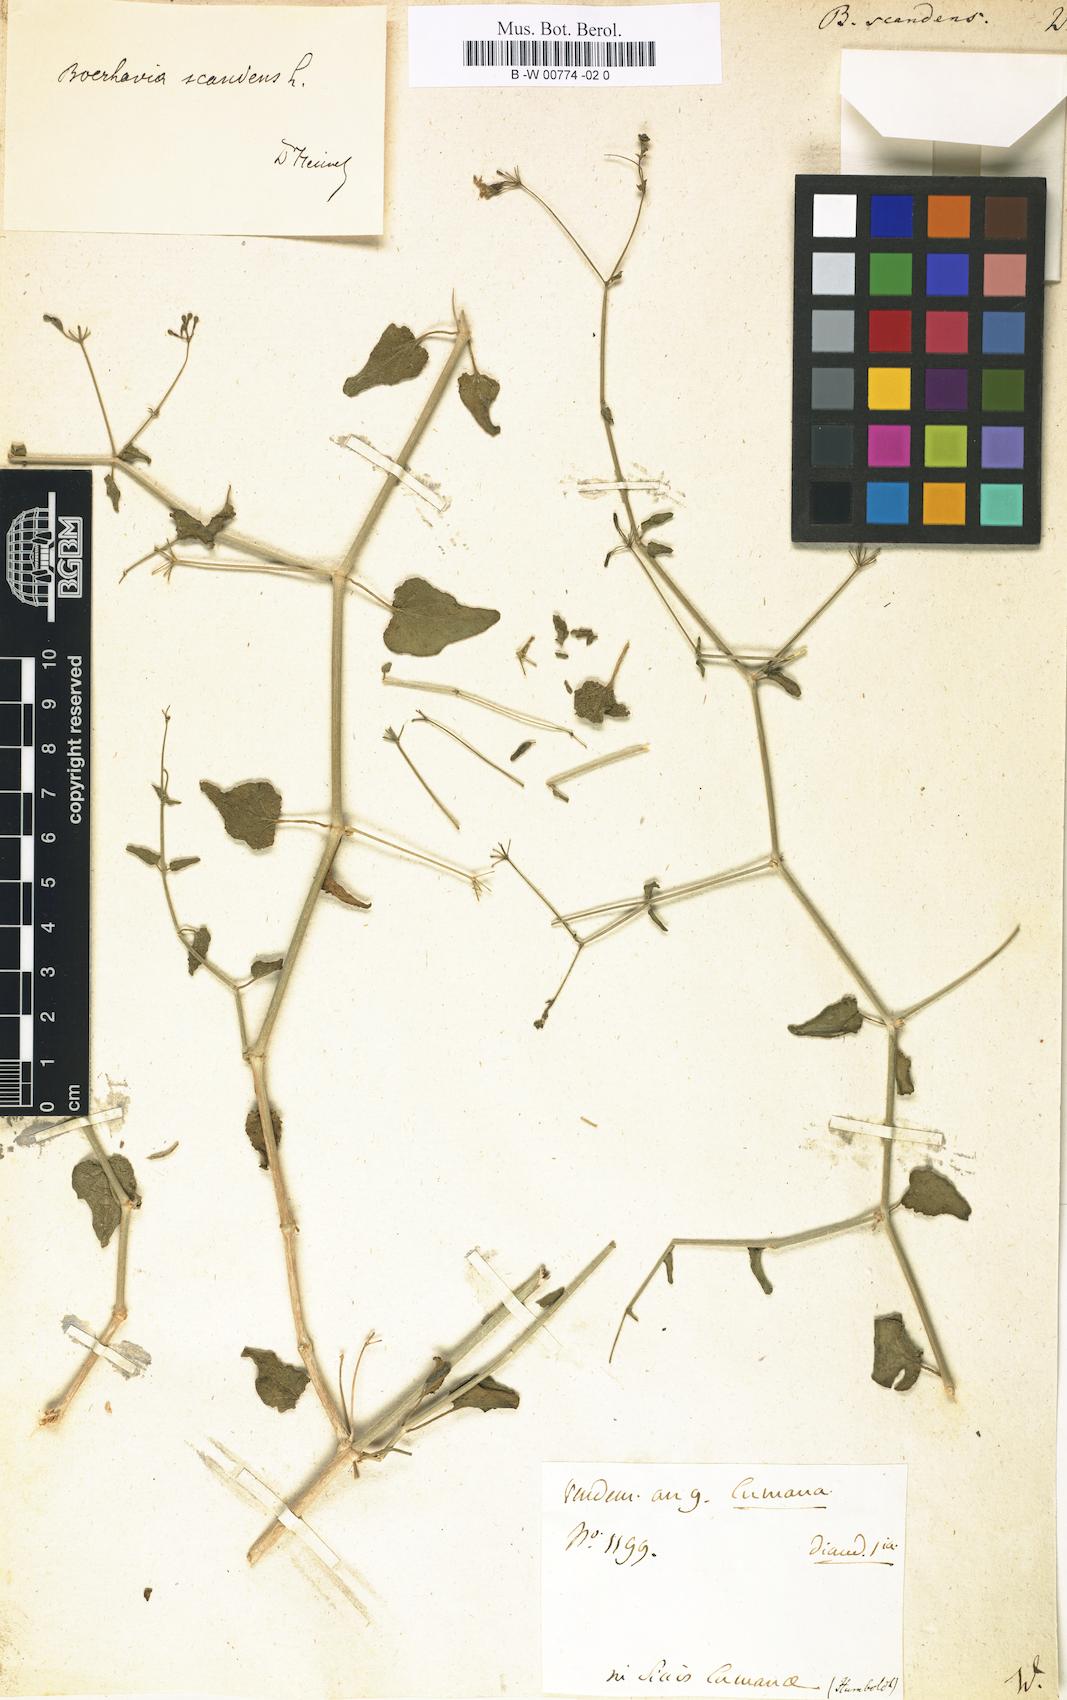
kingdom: Plantae
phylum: Tracheophyta
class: Magnoliopsida
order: Caryophyllales
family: Nyctaginaceae
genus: Boerhavia
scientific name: Boerhavia scandens
